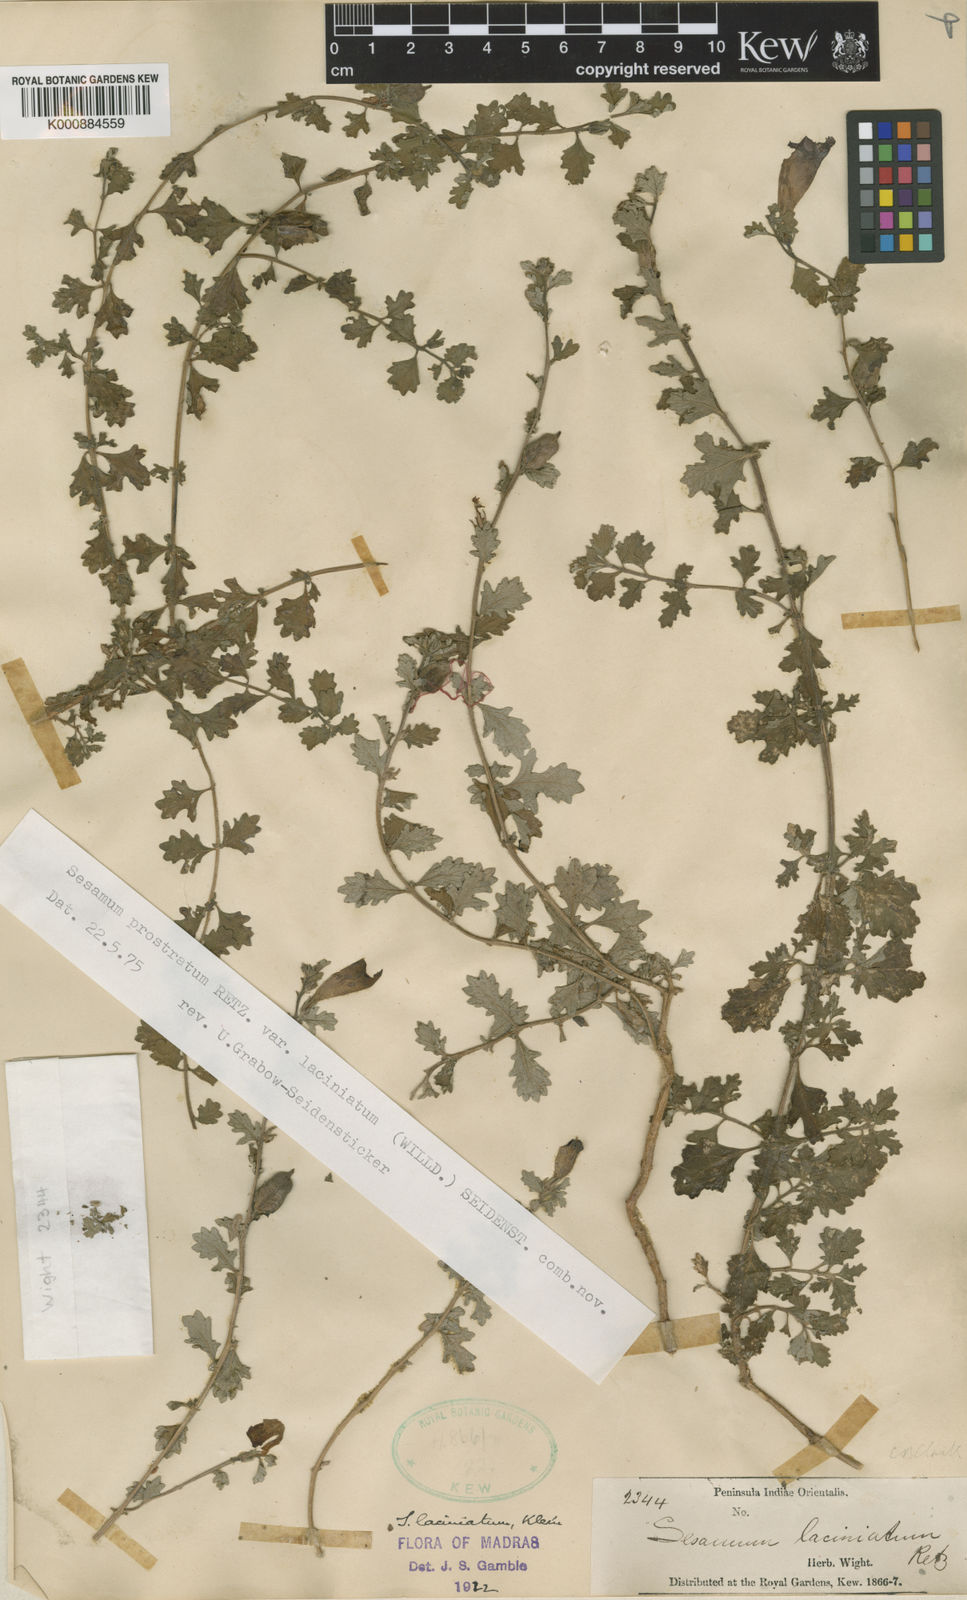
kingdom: Plantae
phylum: Tracheophyta
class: Magnoliopsida
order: Lamiales
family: Pedaliaceae
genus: Sesamum
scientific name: Sesamum prostratum
